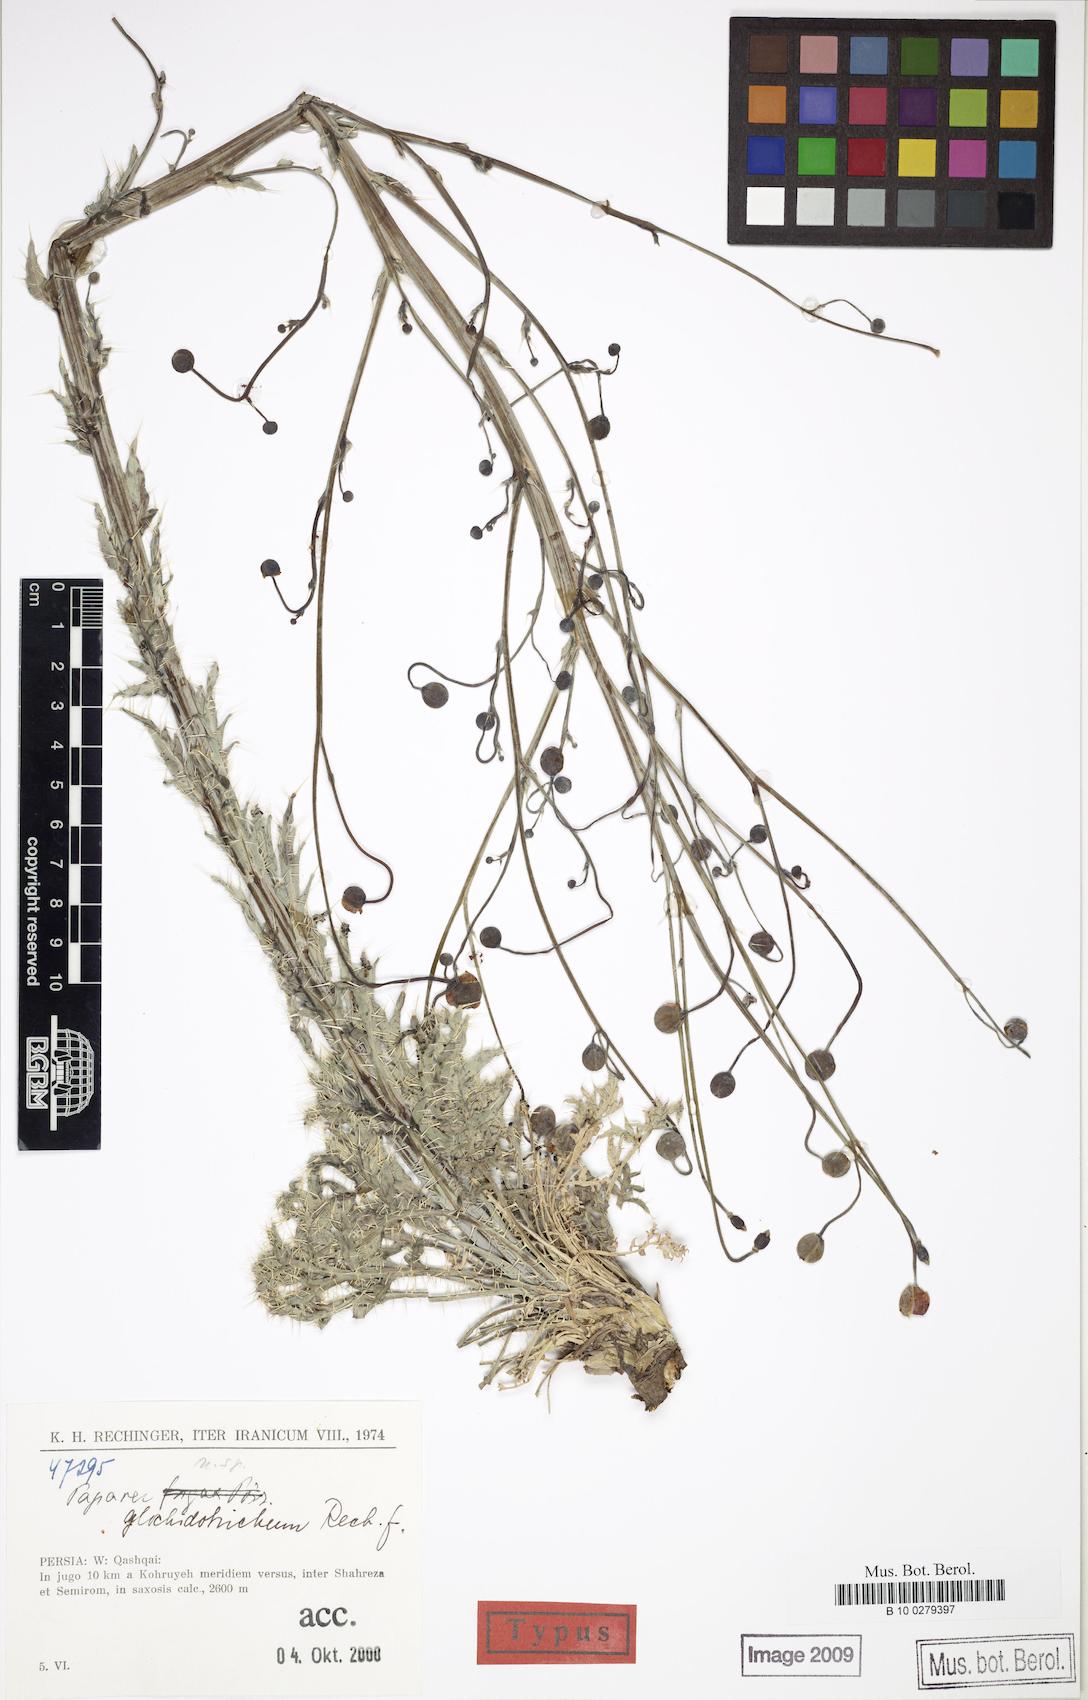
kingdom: Plantae
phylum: Tracheophyta
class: Magnoliopsida
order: Ranunculales
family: Papaveraceae
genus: Papaver
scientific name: Papaver
